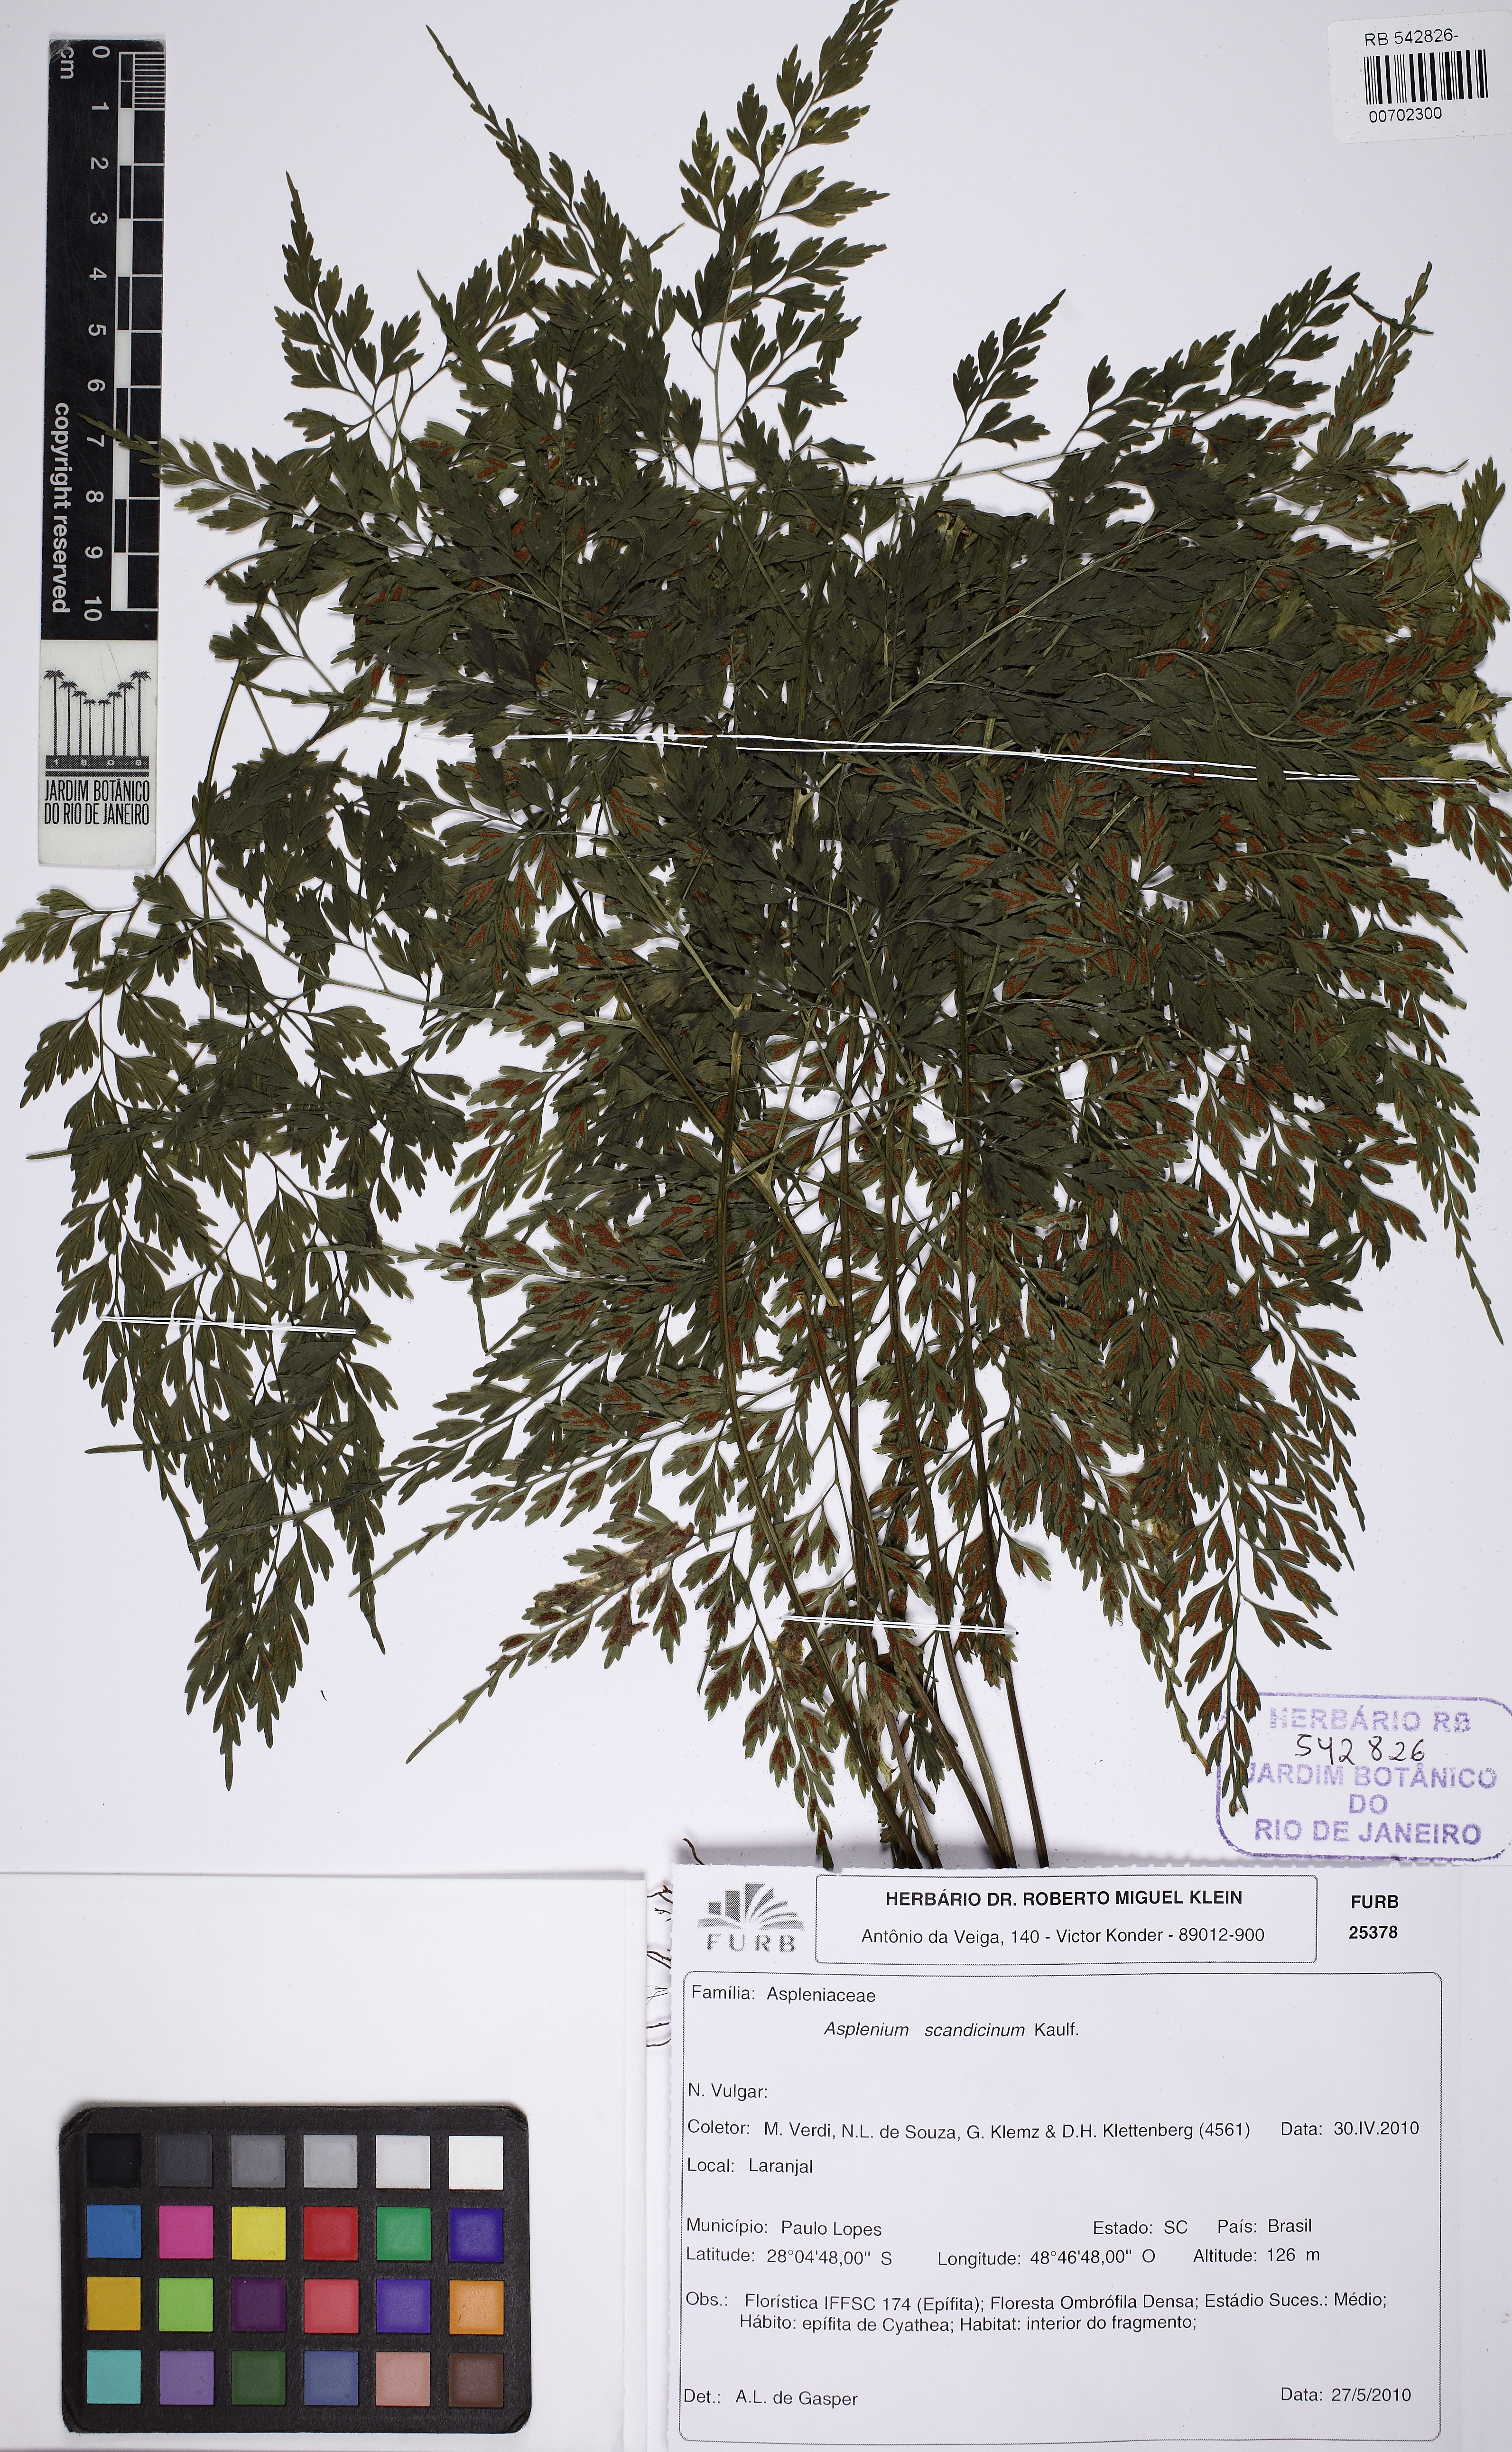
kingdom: Plantae
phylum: Tracheophyta
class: Polypodiopsida
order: Polypodiales
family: Aspleniaceae
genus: Asplenium
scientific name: Asplenium scandicinum
